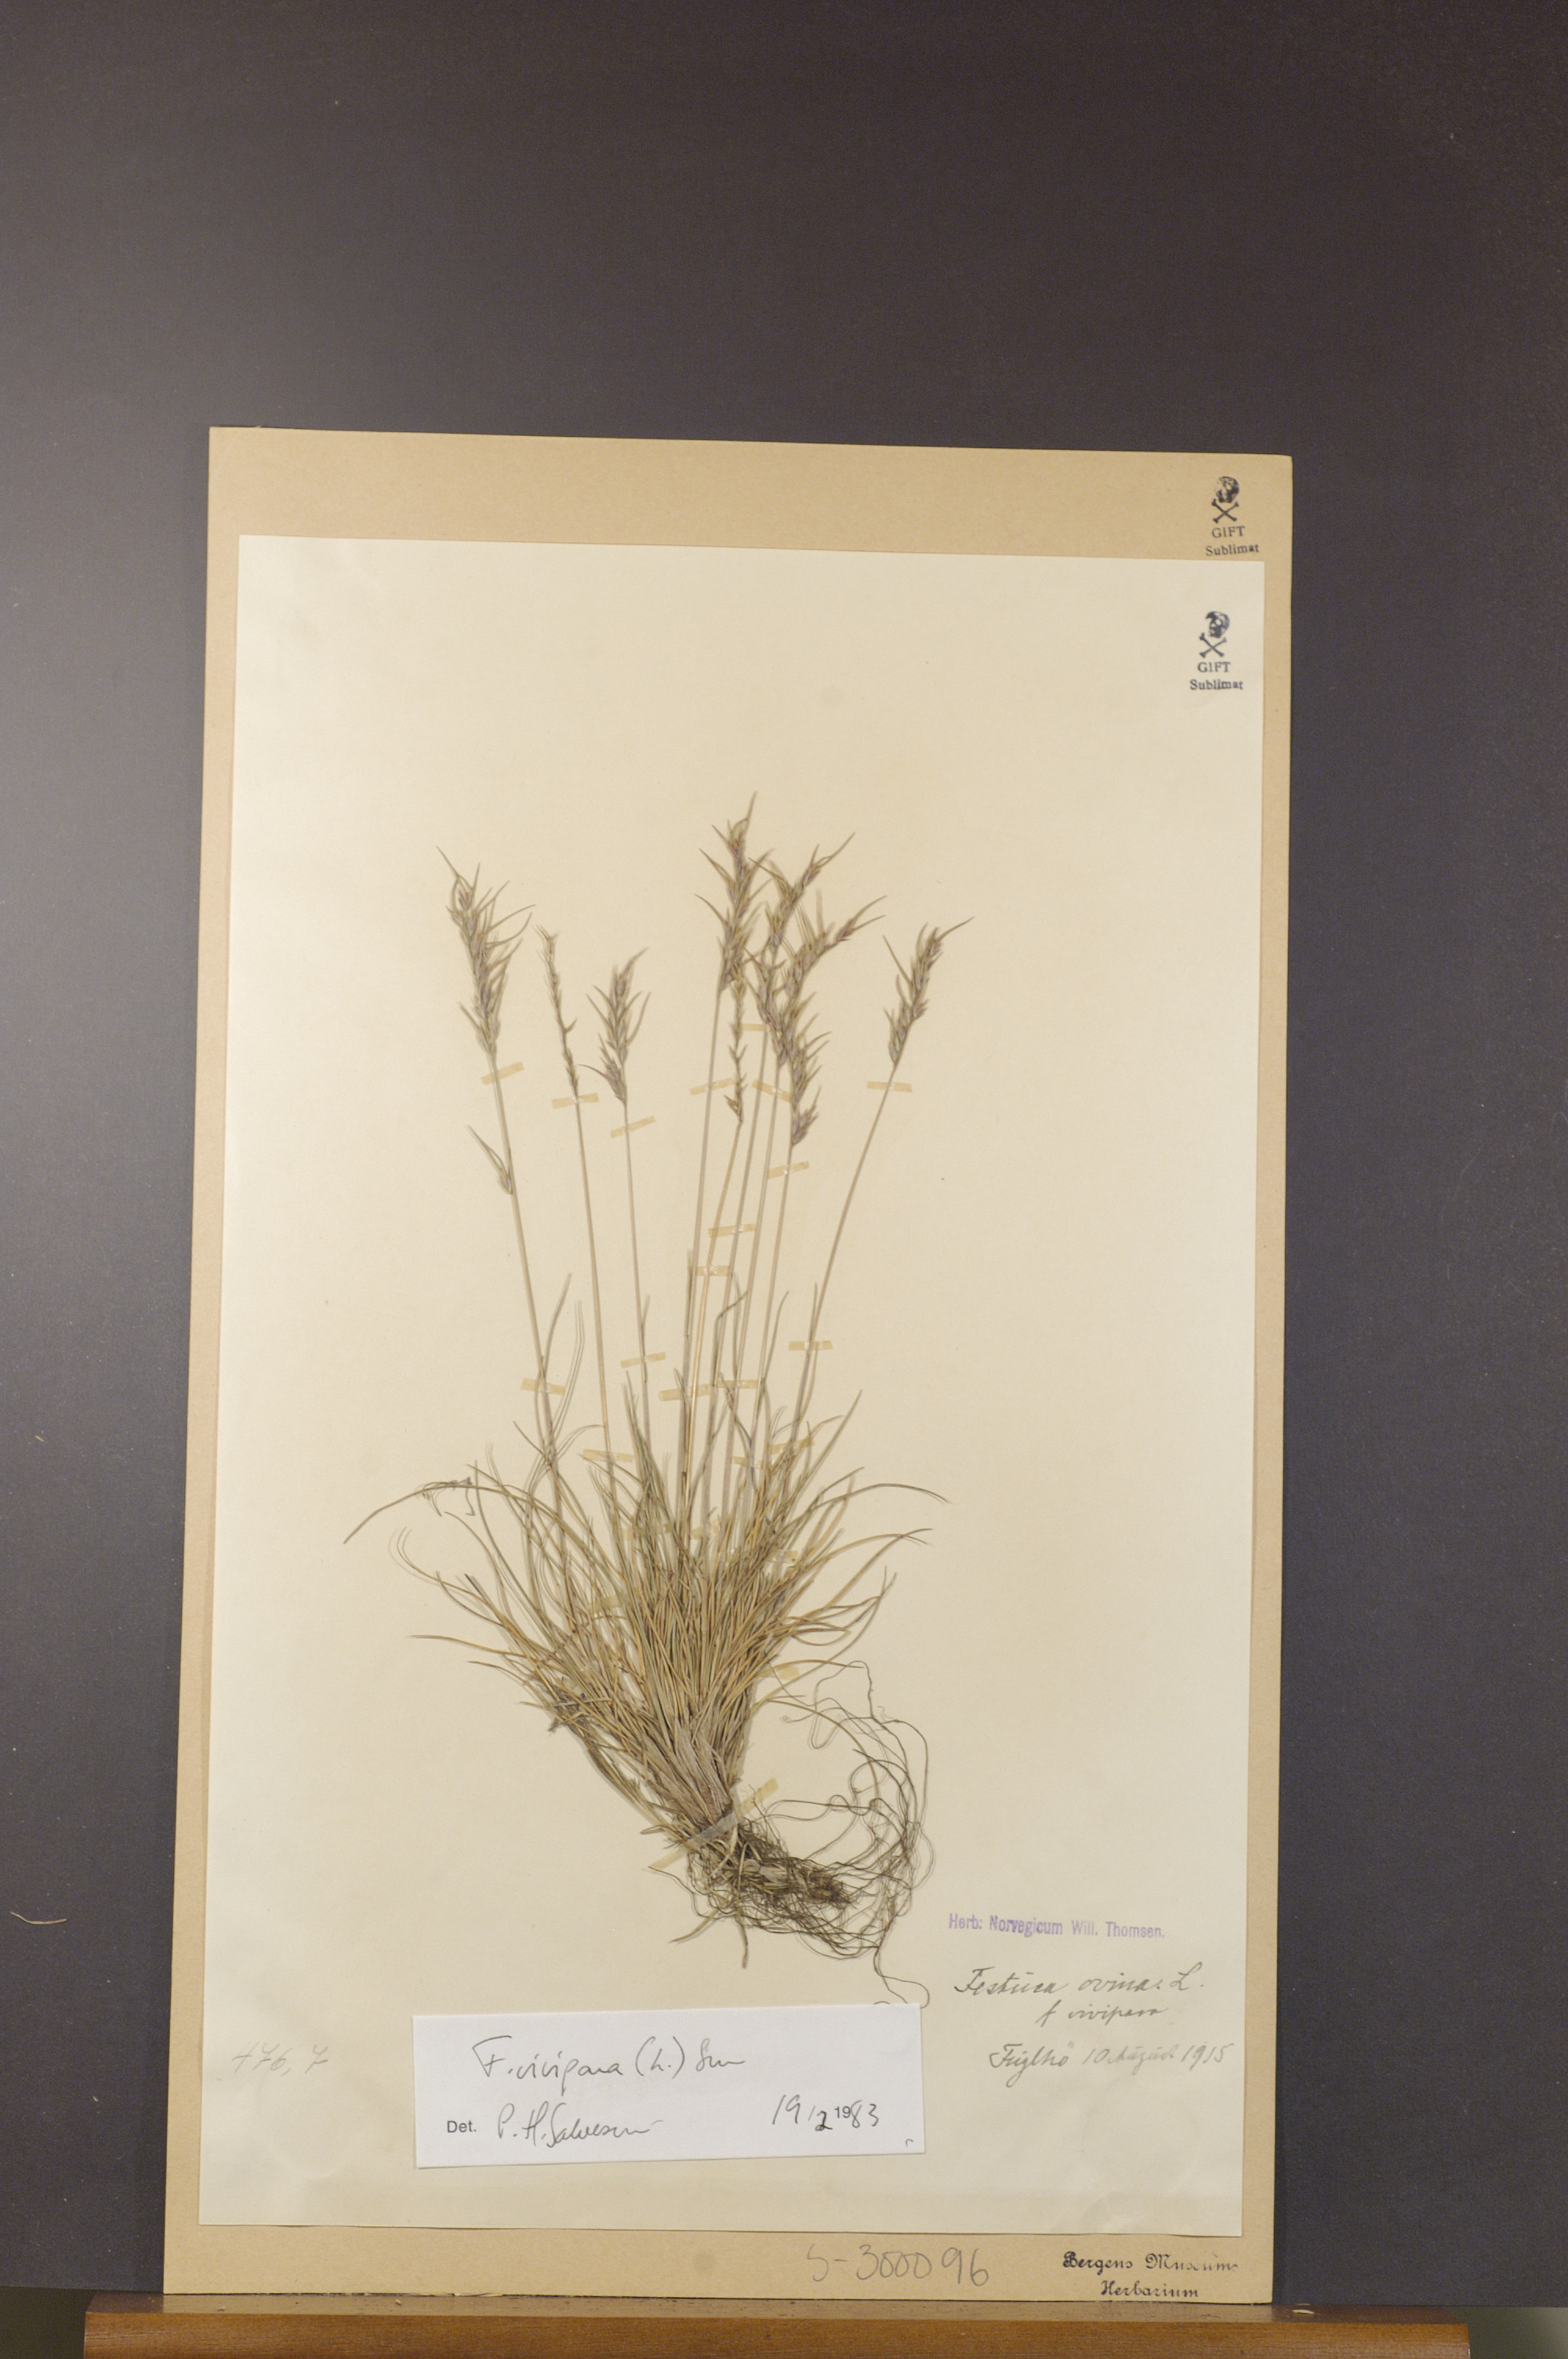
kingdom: Plantae
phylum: Tracheophyta
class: Liliopsida
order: Poales
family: Poaceae
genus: Festuca
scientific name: Festuca vivipara
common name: Viviparous sheep's-fescue
